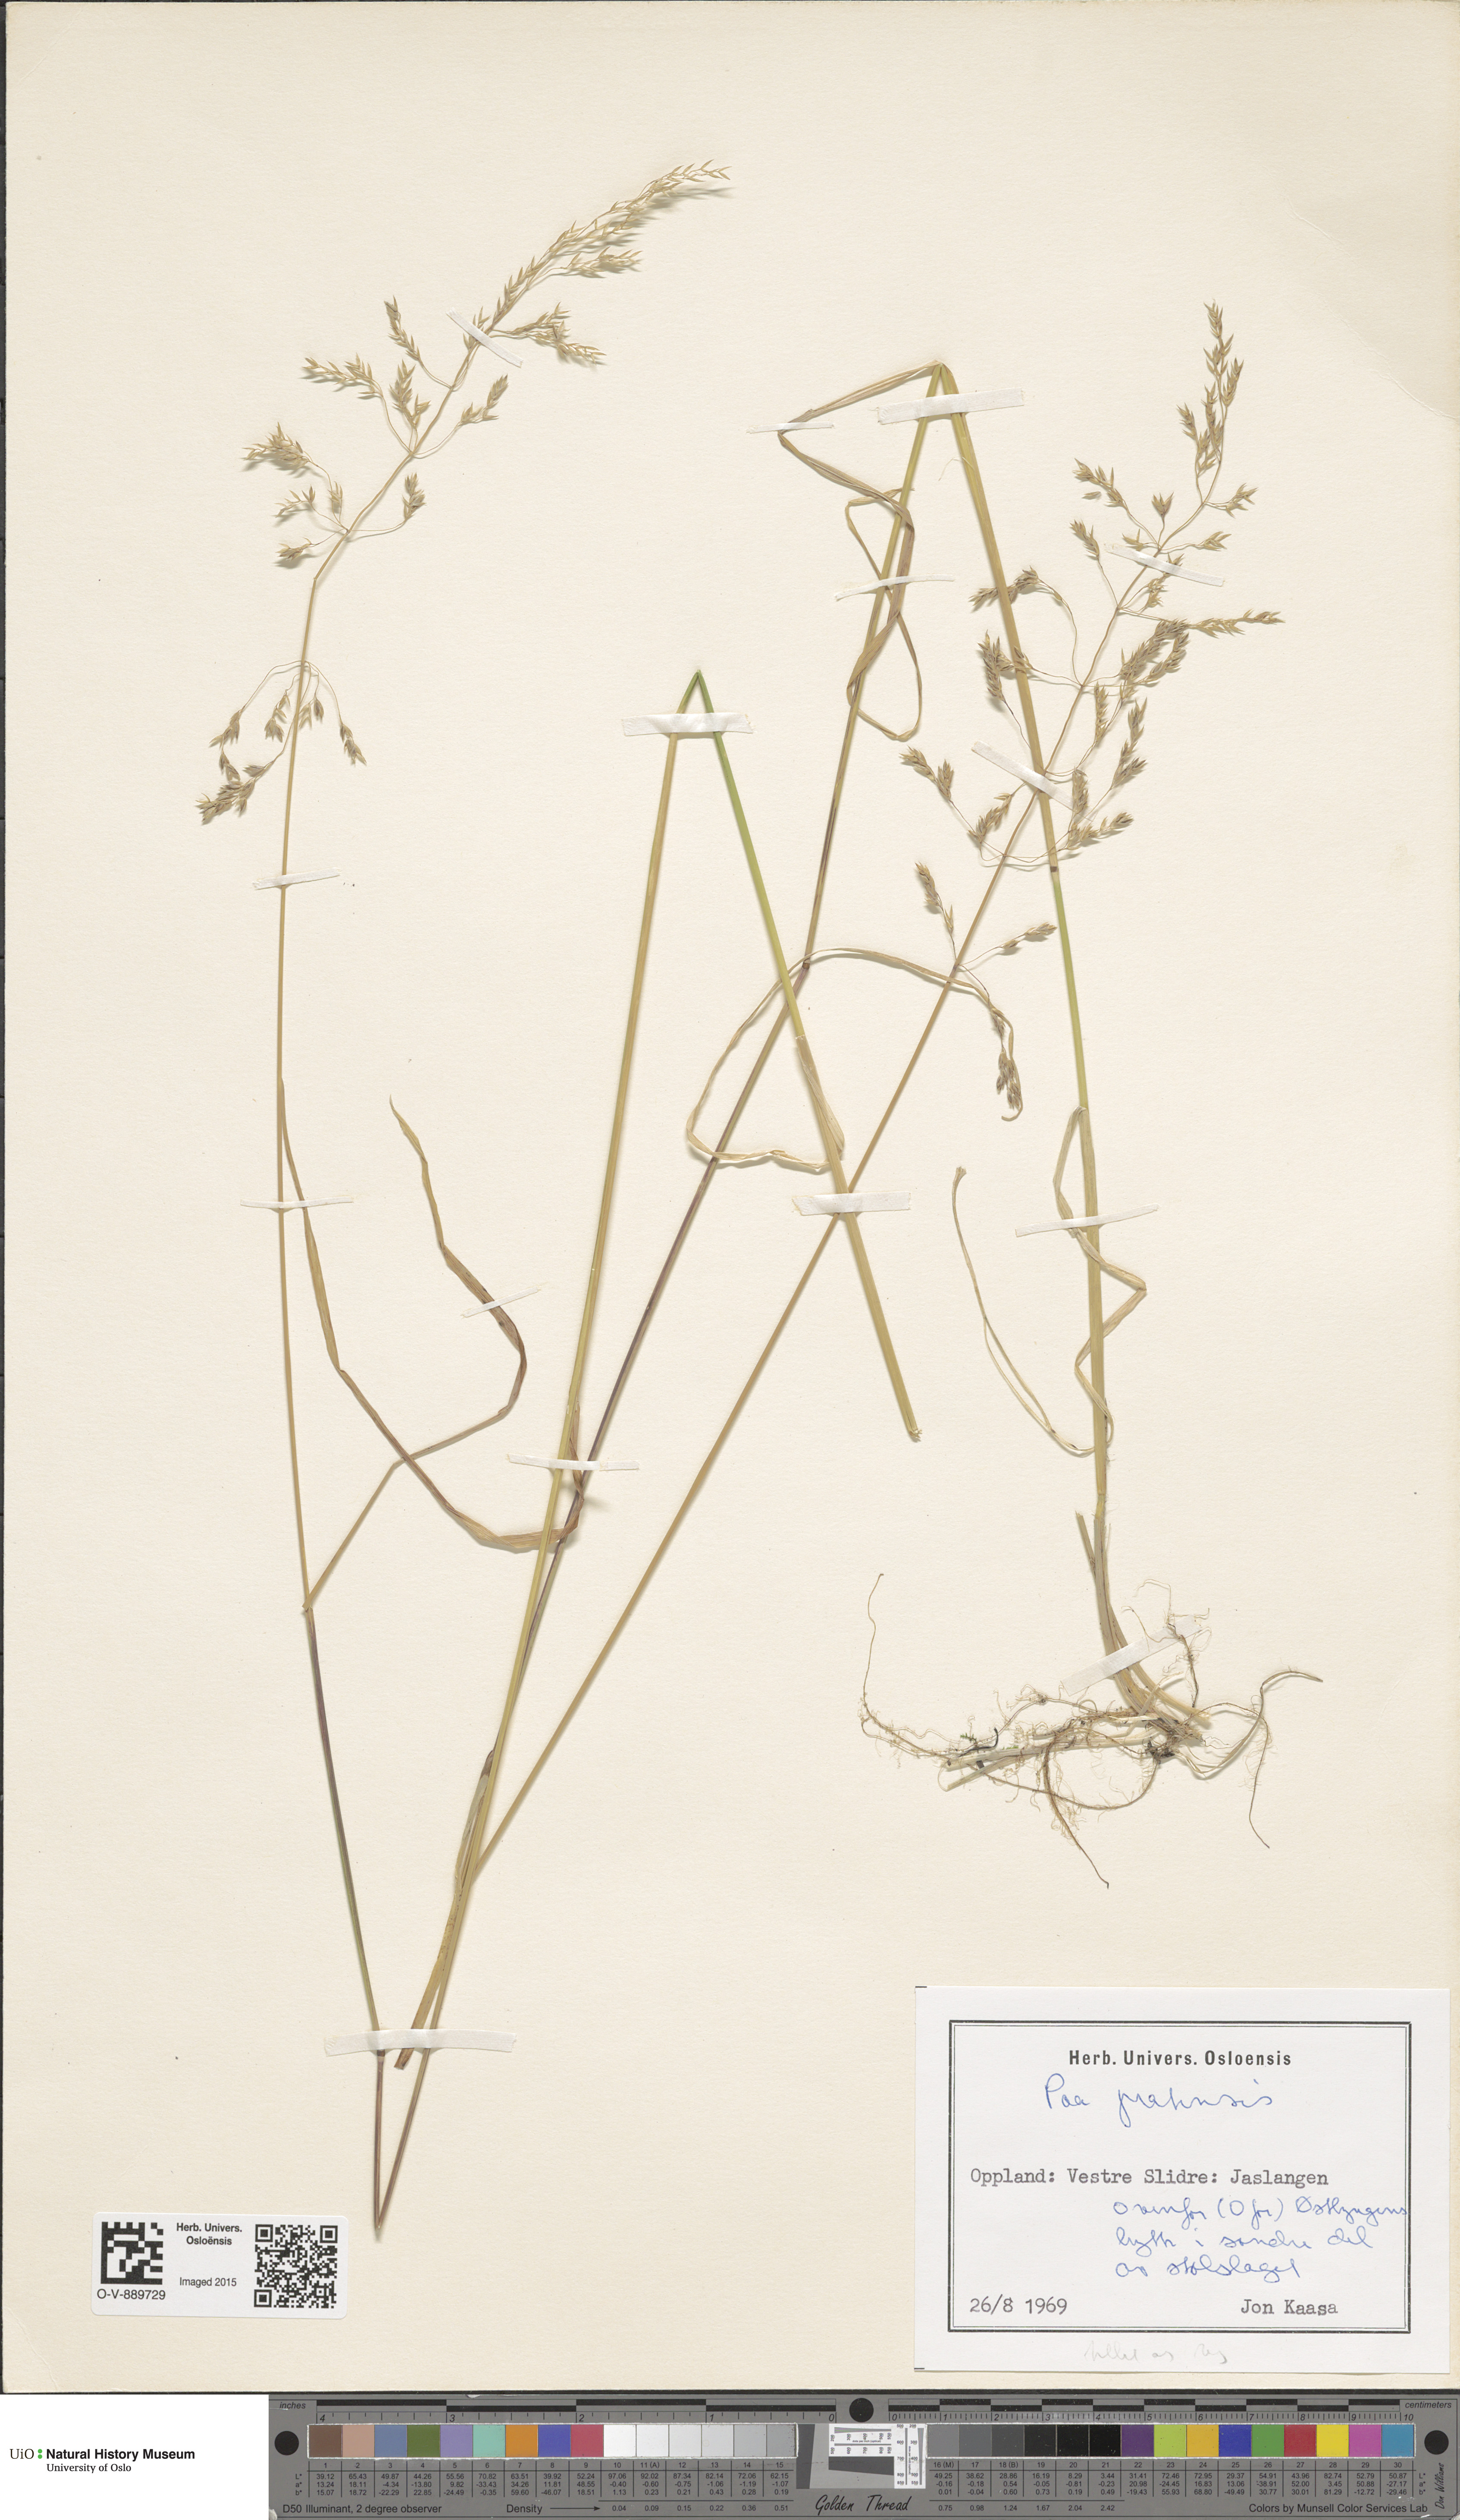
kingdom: Plantae
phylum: Tracheophyta
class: Liliopsida
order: Poales
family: Poaceae
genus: Poa
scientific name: Poa pratensis
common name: Kentucky bluegrass
